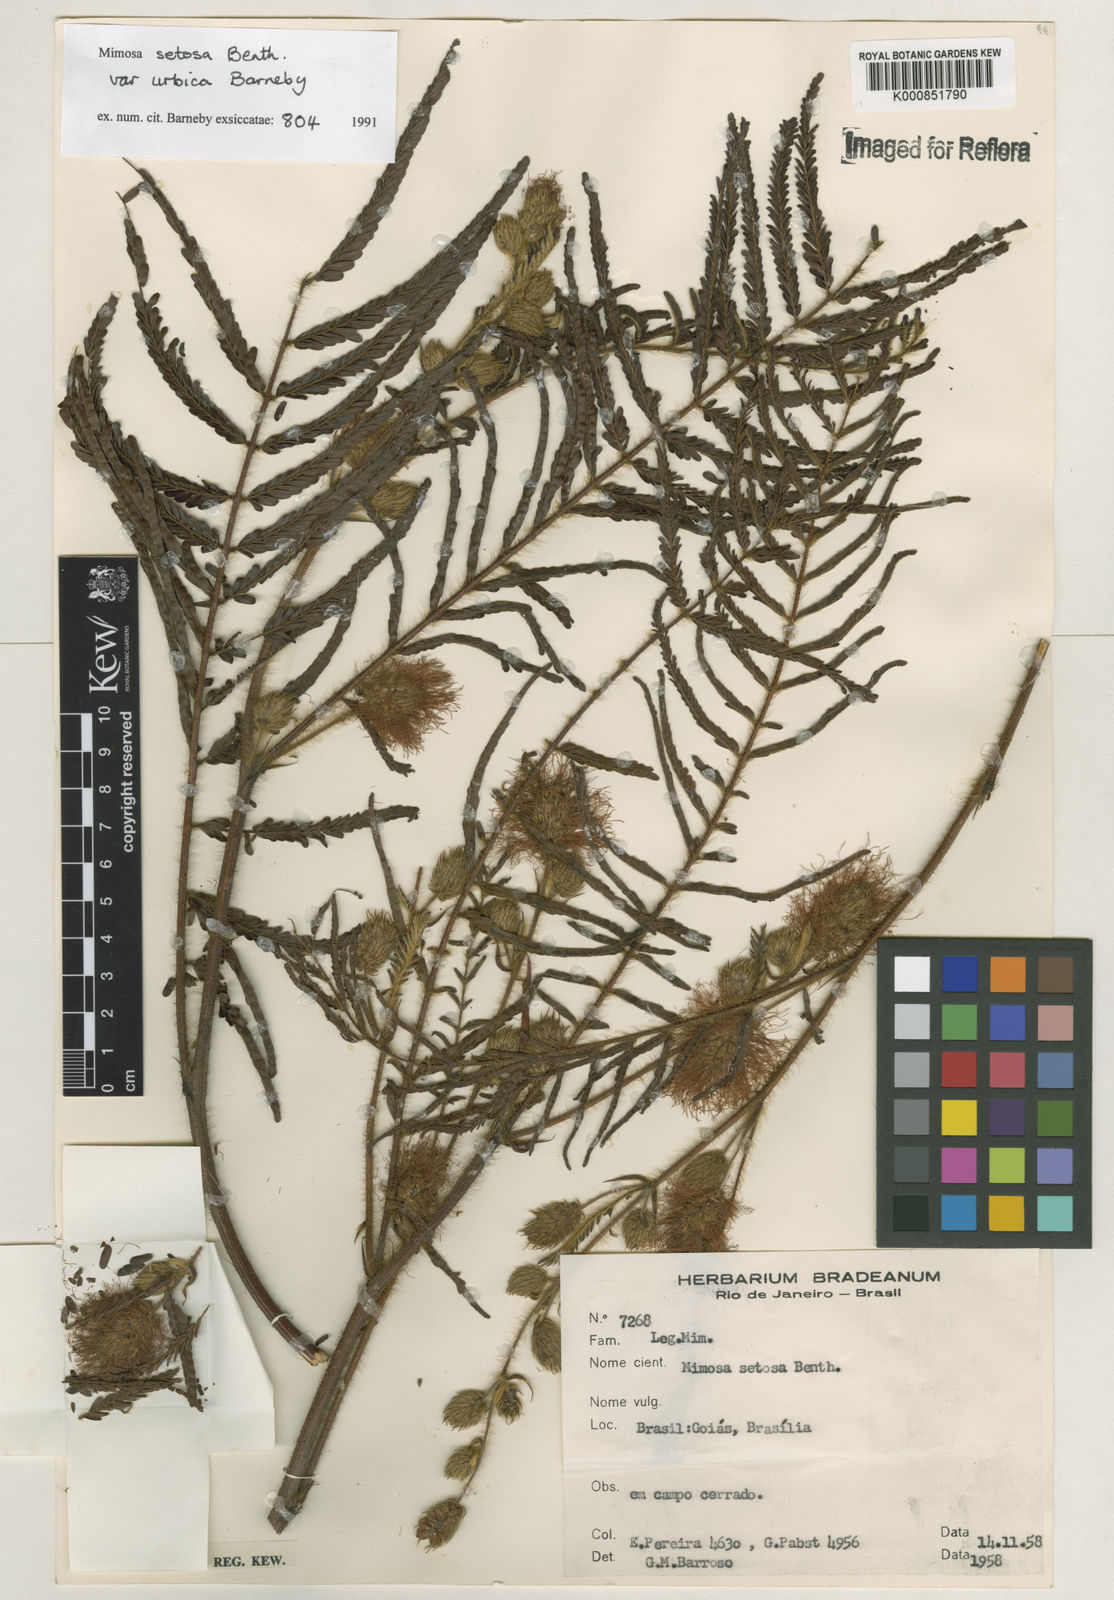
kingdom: Plantae
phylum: Tracheophyta
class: Magnoliopsida
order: Fabales
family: Fabaceae
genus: Mimosa
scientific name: Mimosa urbica
